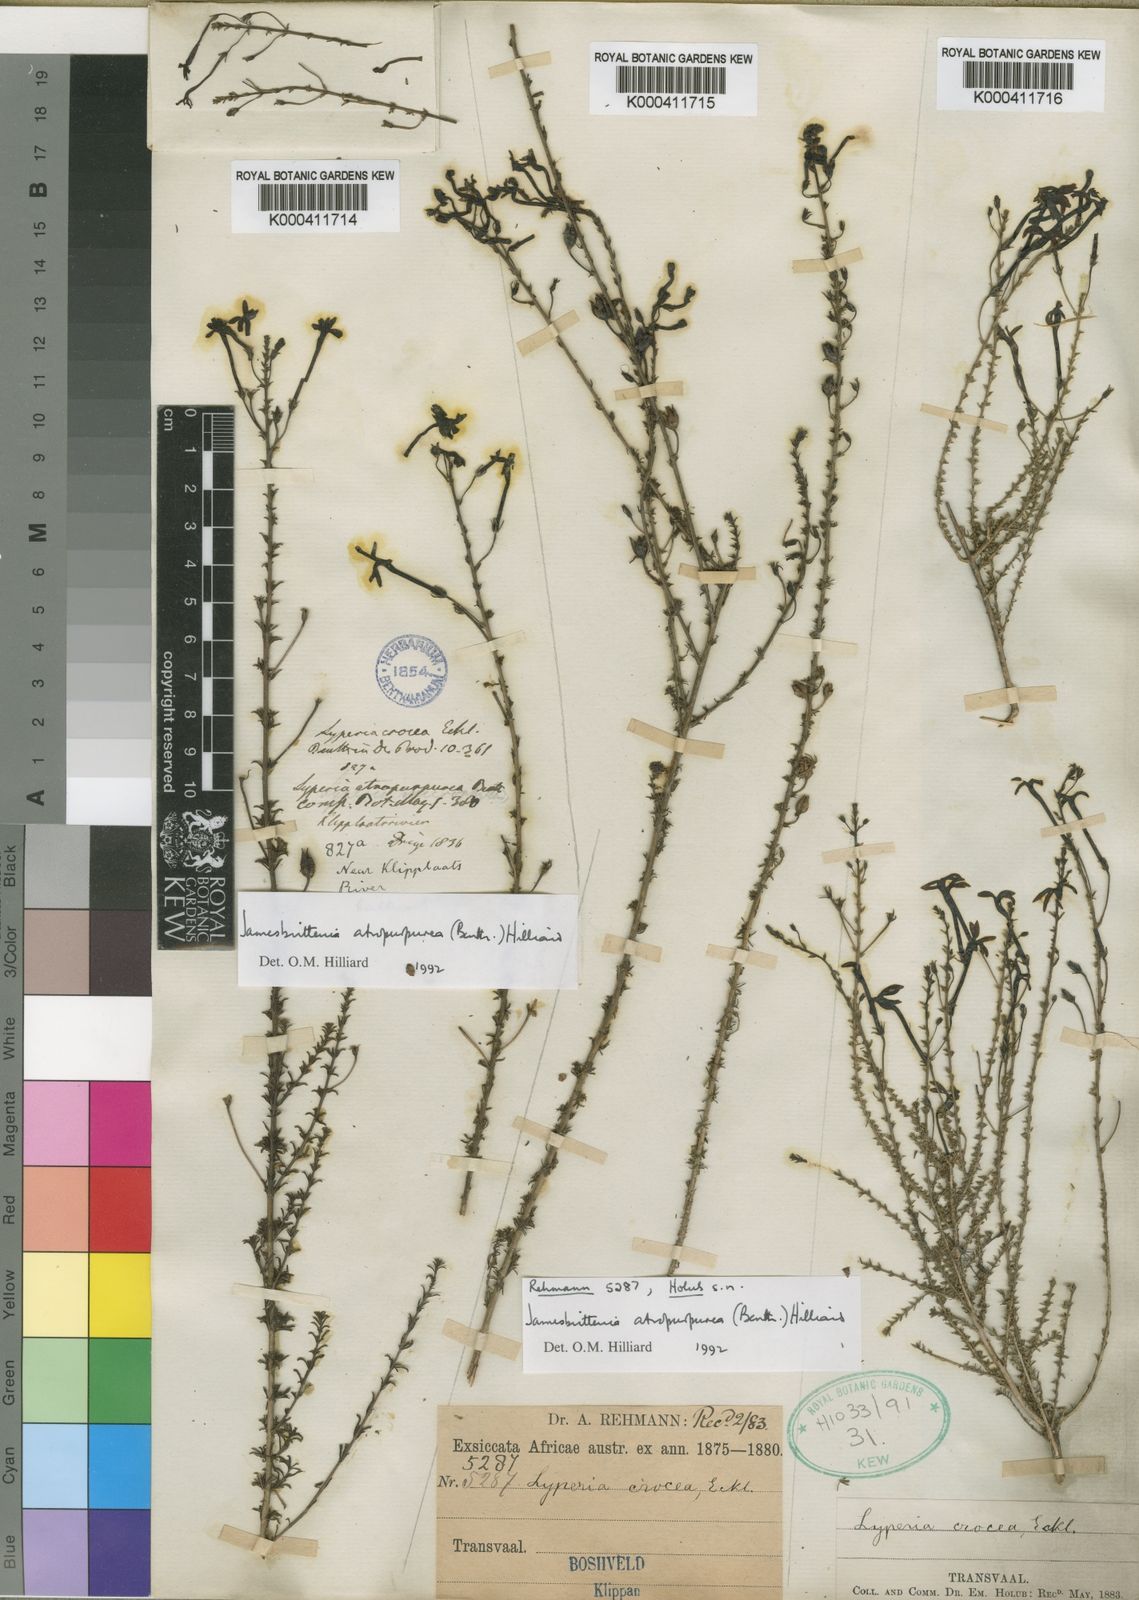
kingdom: Plantae
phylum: Tracheophyta
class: Magnoliopsida
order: Lamiales
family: Scrophulariaceae
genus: Jamesbrittenia
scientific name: Jamesbrittenia atropurpurea
